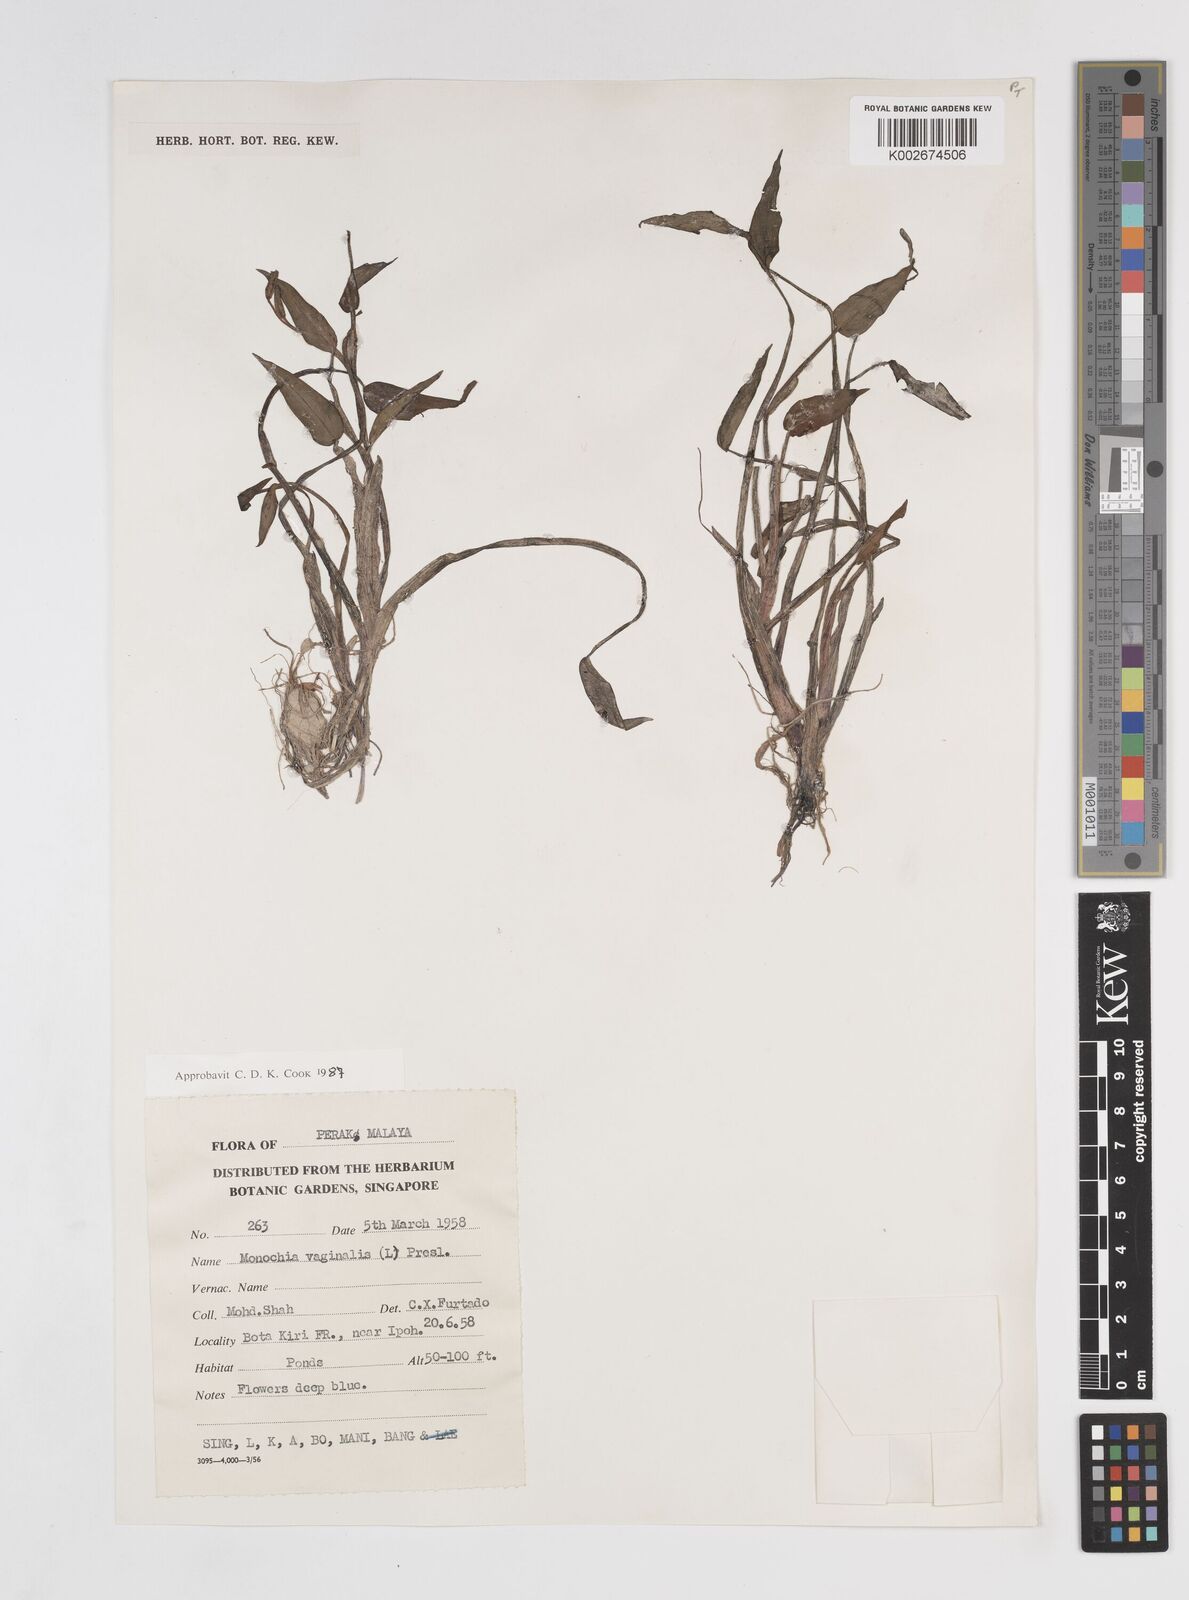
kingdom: Plantae
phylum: Tracheophyta
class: Liliopsida
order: Commelinales
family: Pontederiaceae
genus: Pontederia
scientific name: Pontederia vaginalis
